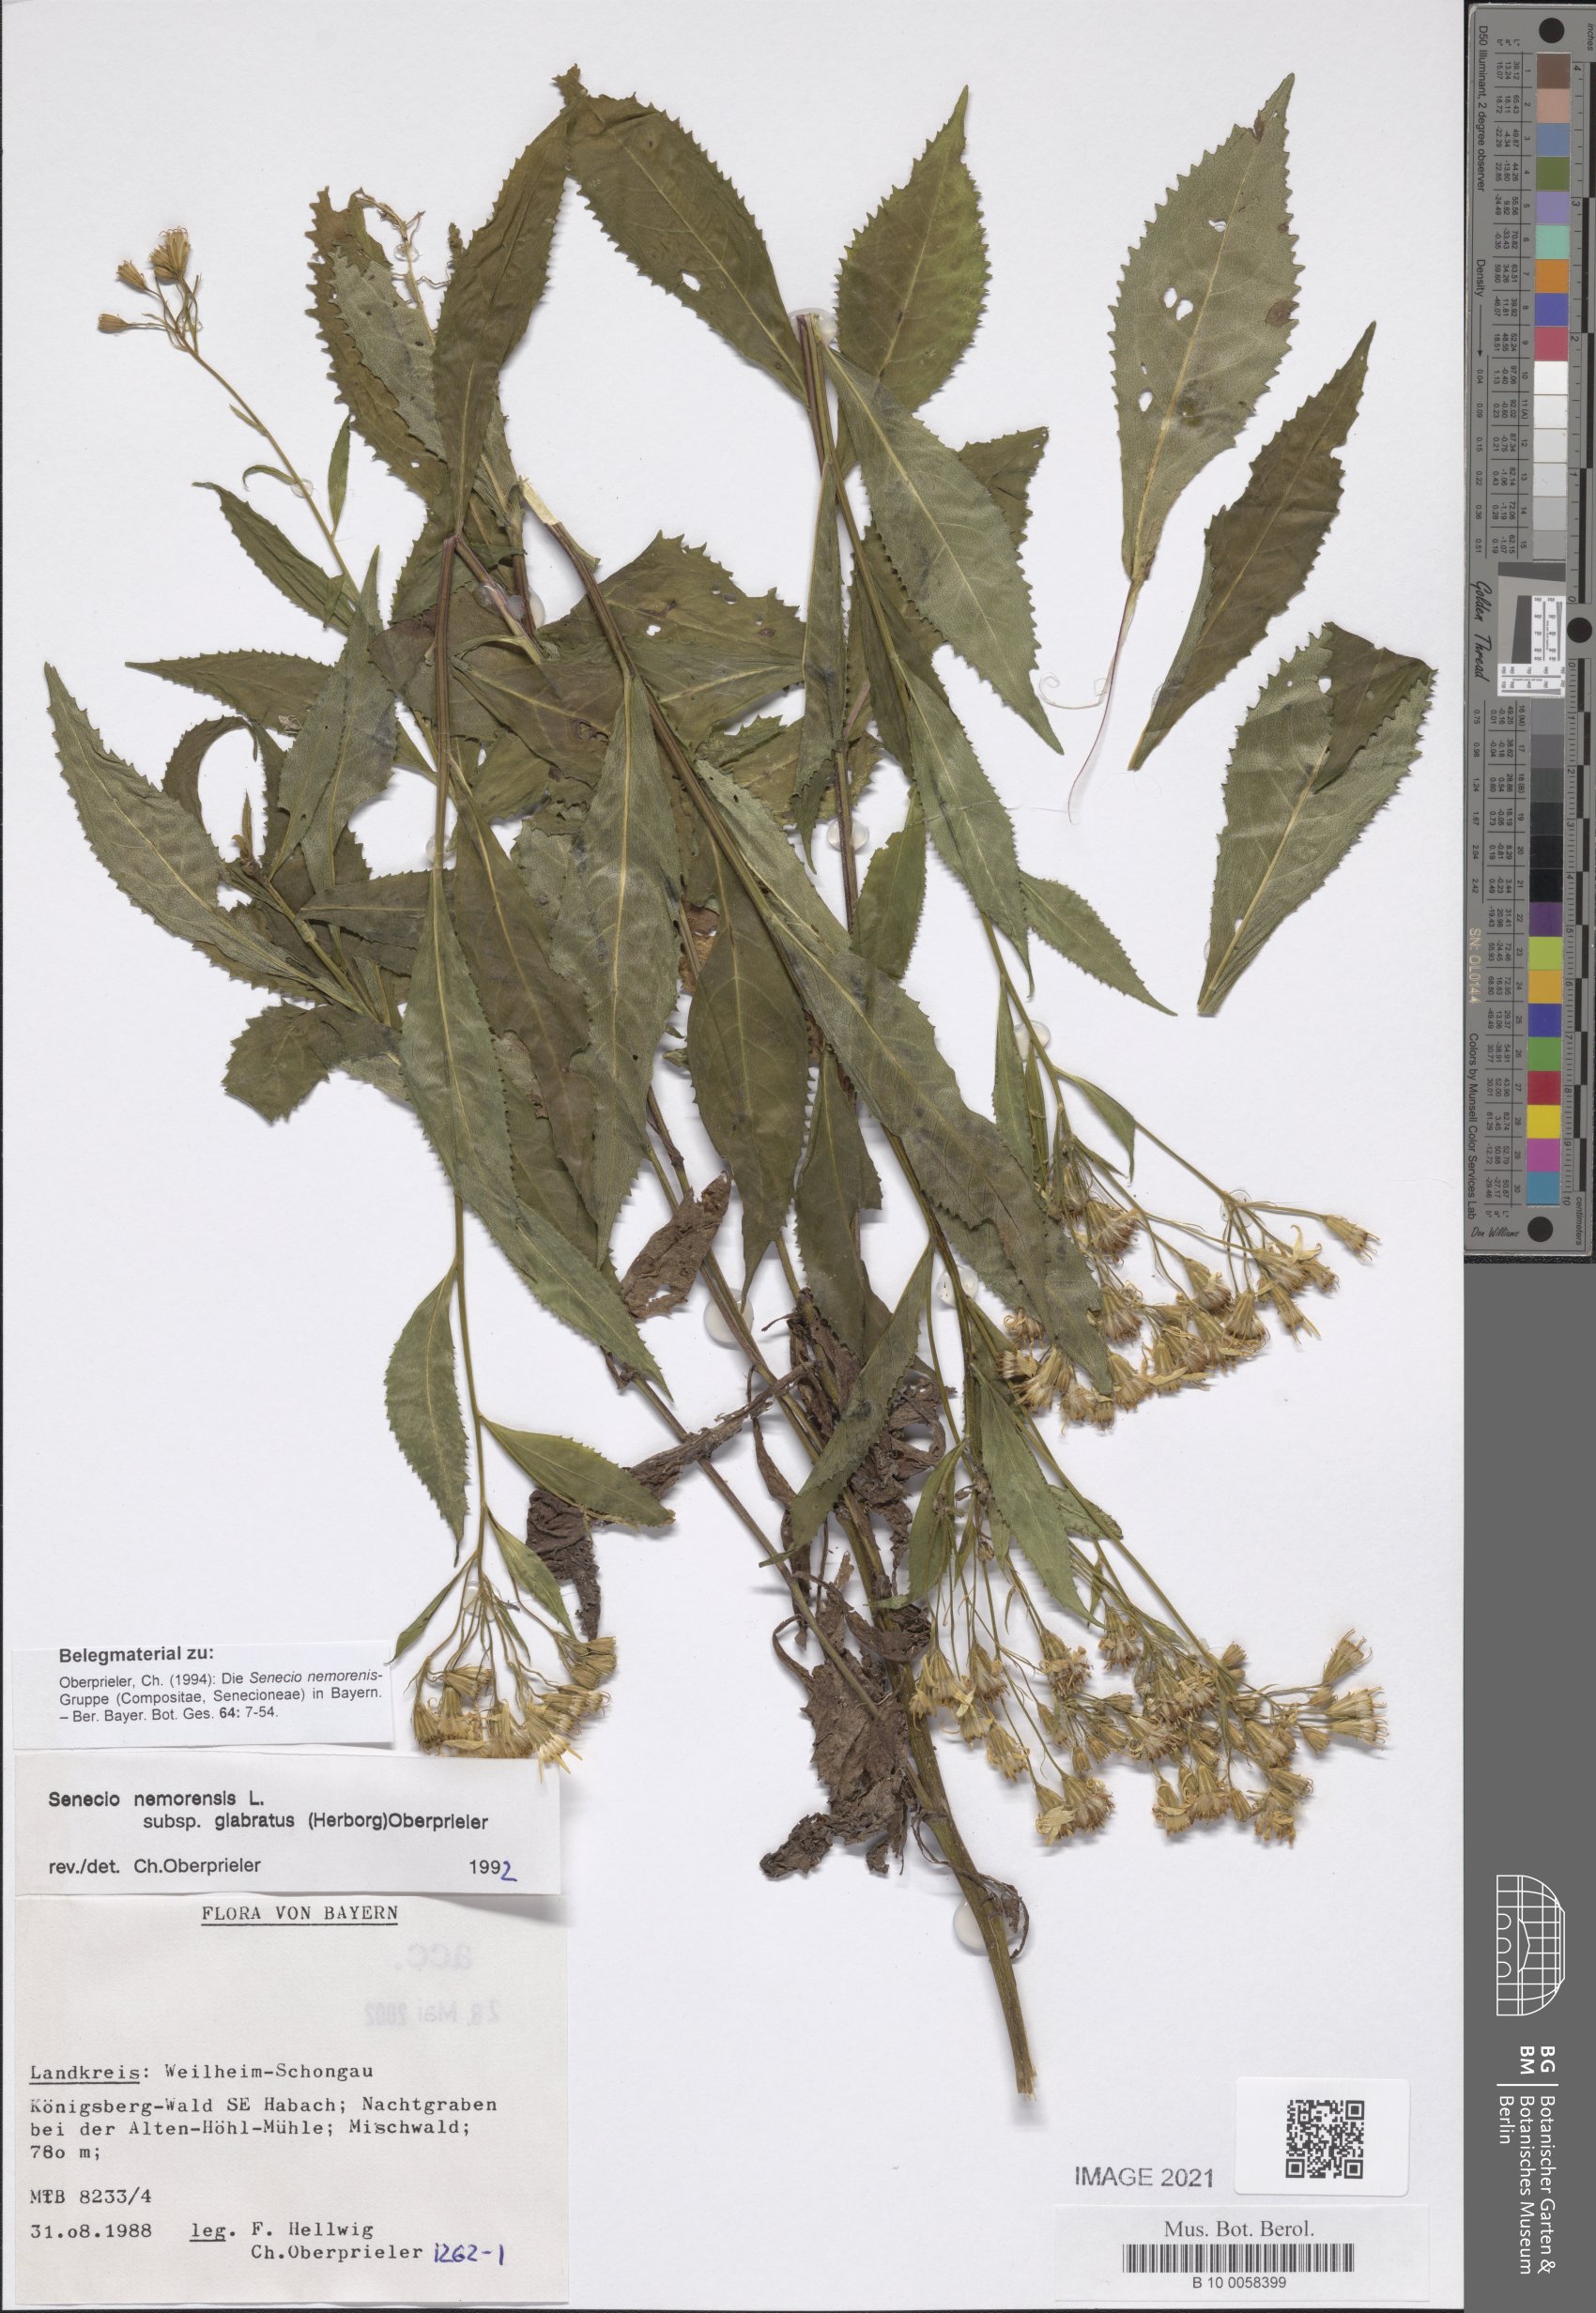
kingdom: Plantae
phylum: Tracheophyta
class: Magnoliopsida
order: Asterales
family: Asteraceae
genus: Senecio
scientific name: Senecio germanicus
